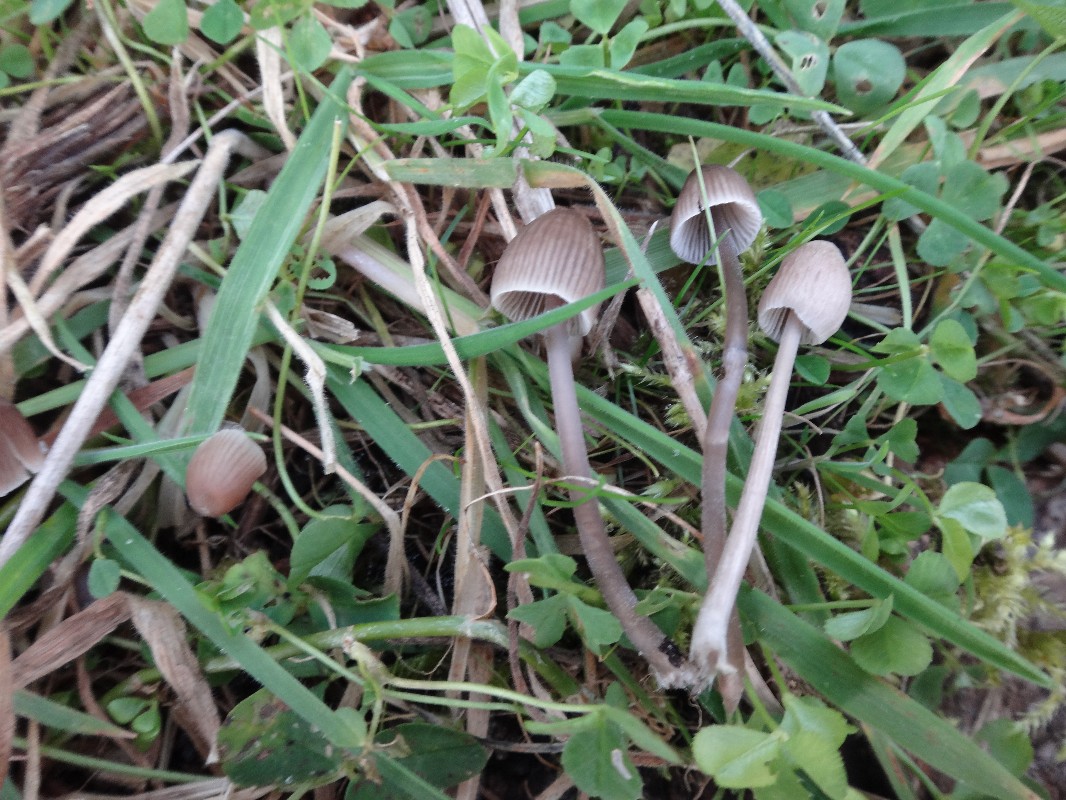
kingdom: Fungi
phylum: Basidiomycota
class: Agaricomycetes
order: Agaricales
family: Mycenaceae
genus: Mycena
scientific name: Mycena leptocephala
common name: klor-huesvamp
